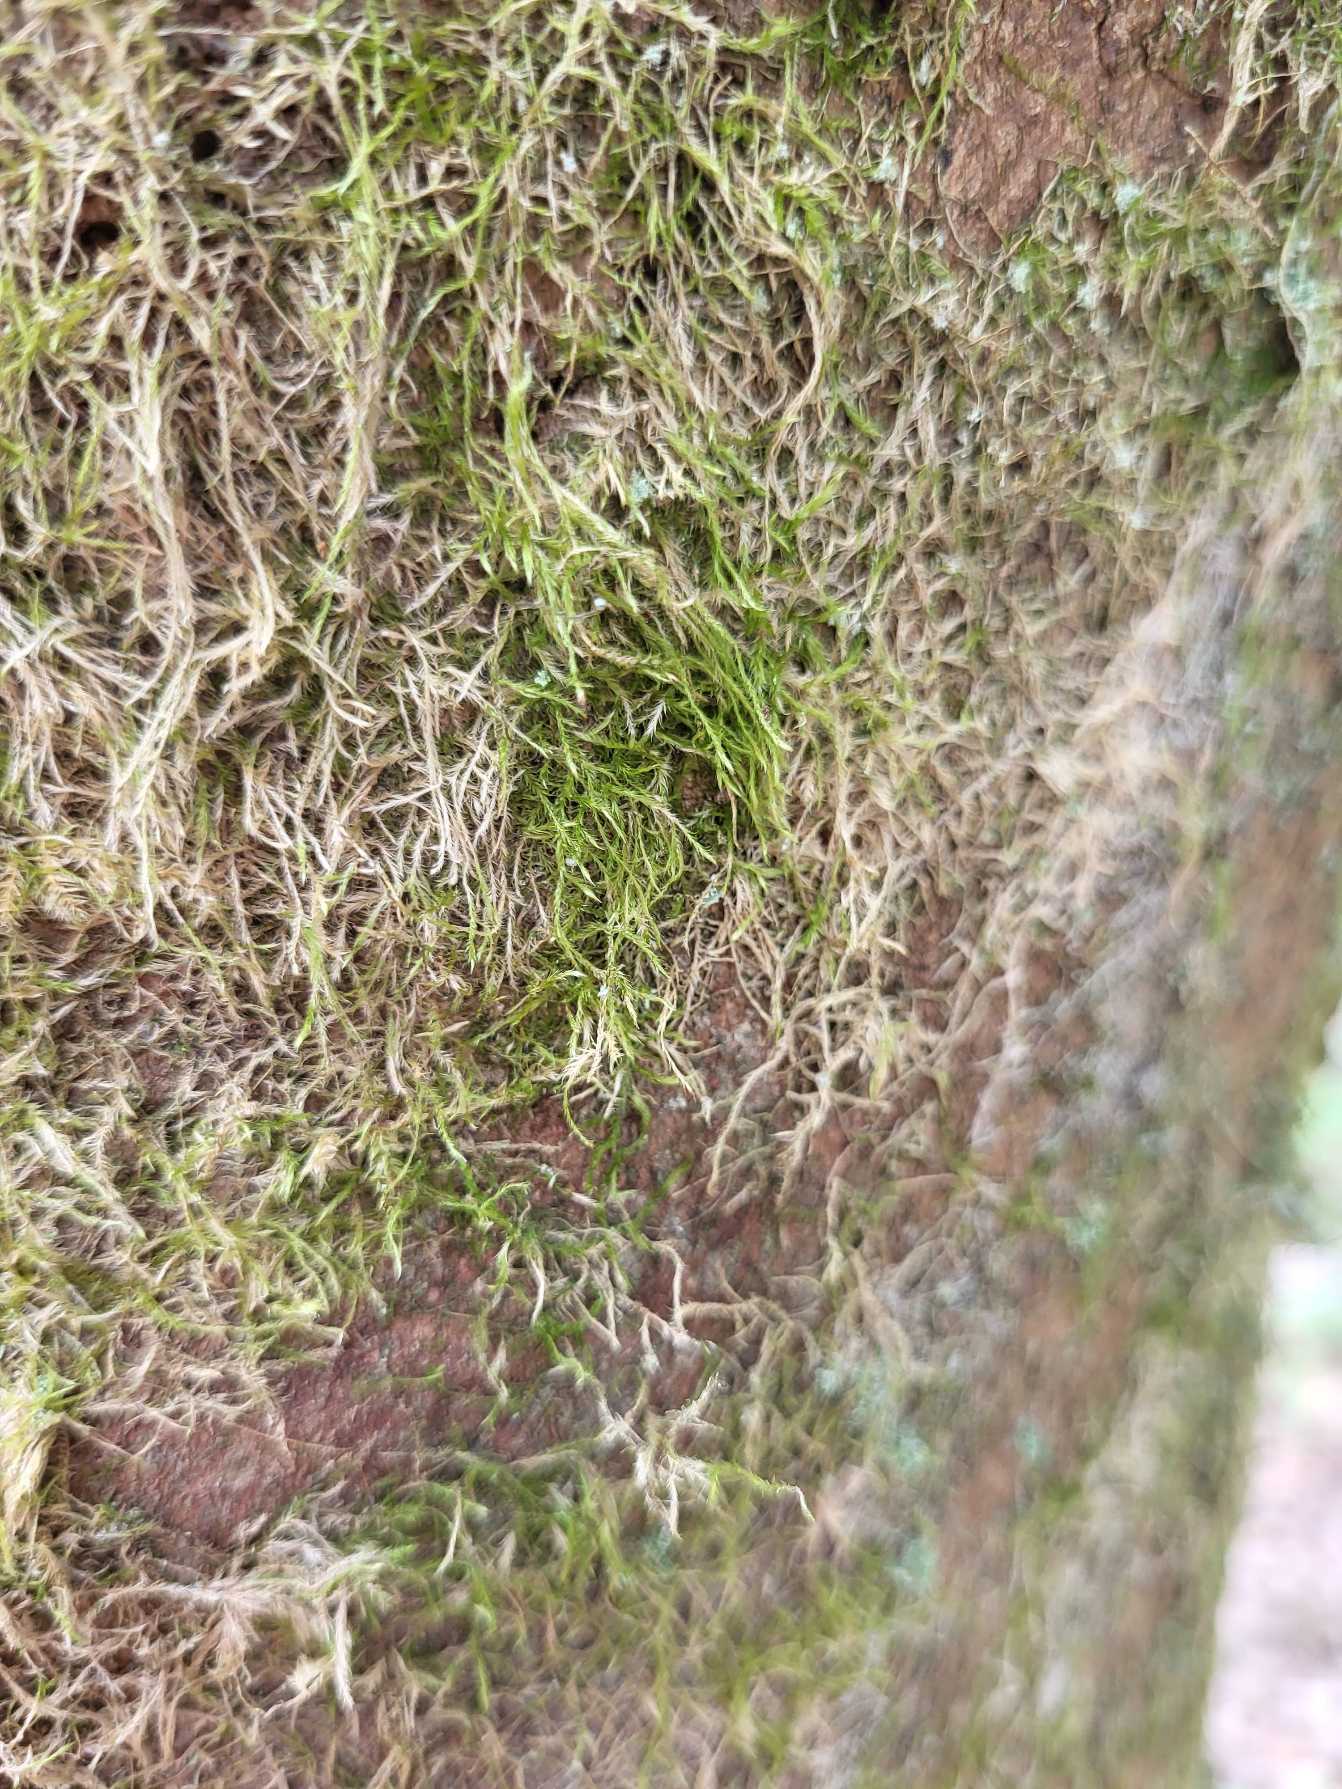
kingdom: Plantae
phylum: Bryophyta
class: Bryopsida
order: Hypnales
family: Hypnaceae
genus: Hypnum
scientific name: Hypnum
